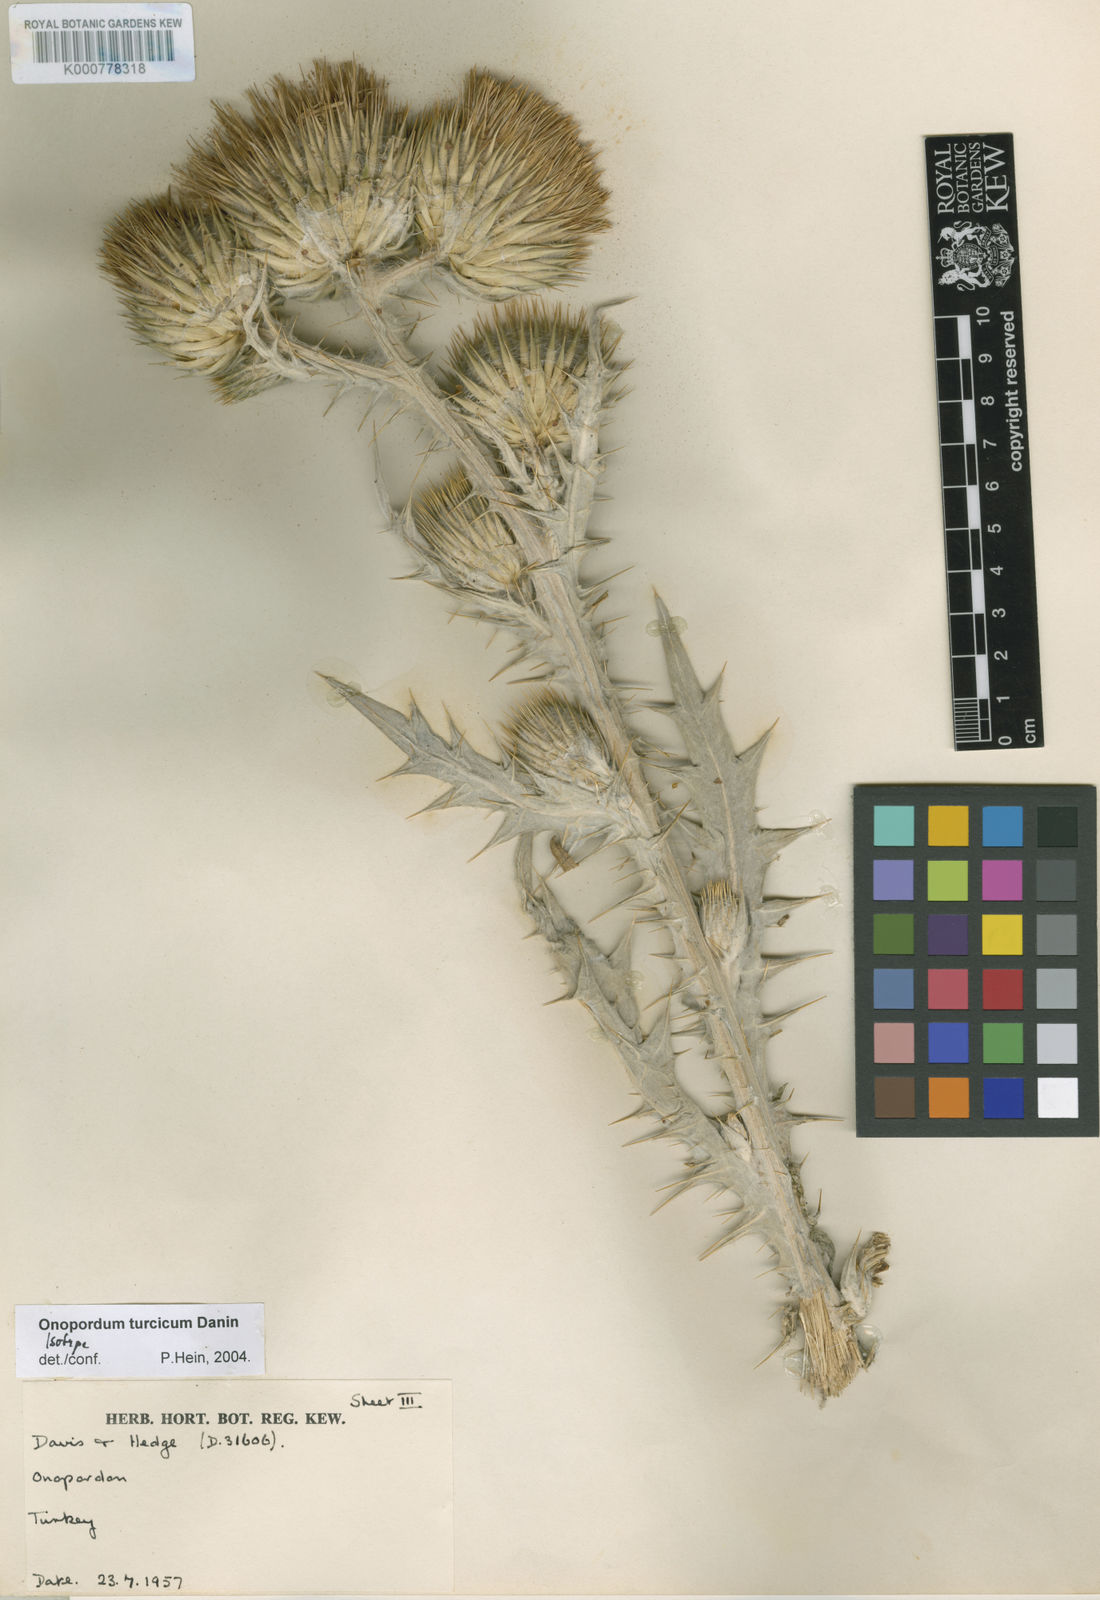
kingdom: Plantae
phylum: Tracheophyta
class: Magnoliopsida
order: Asterales
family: Asteraceae
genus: Onopordum
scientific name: Onopordum turcicum
